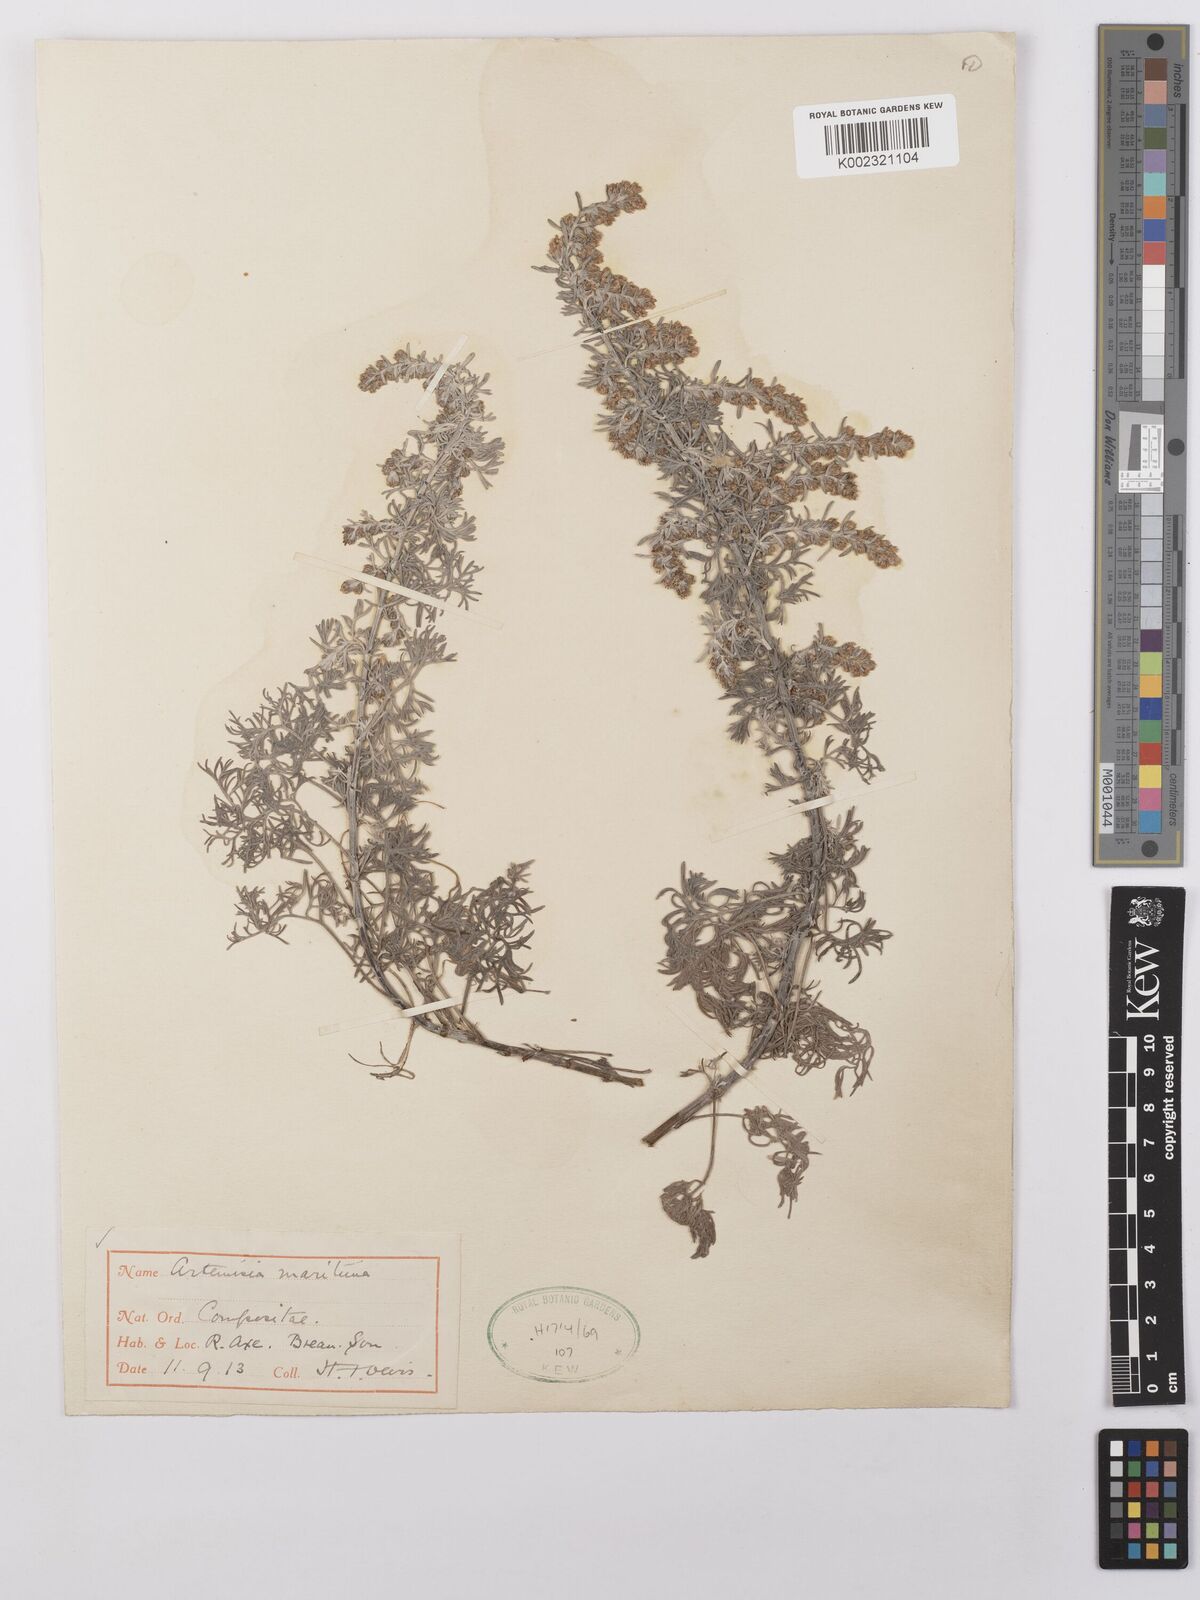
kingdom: Plantae
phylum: Tracheophyta
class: Magnoliopsida
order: Asterales
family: Asteraceae
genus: Artemisia
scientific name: Artemisia maritima
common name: Wormseed
